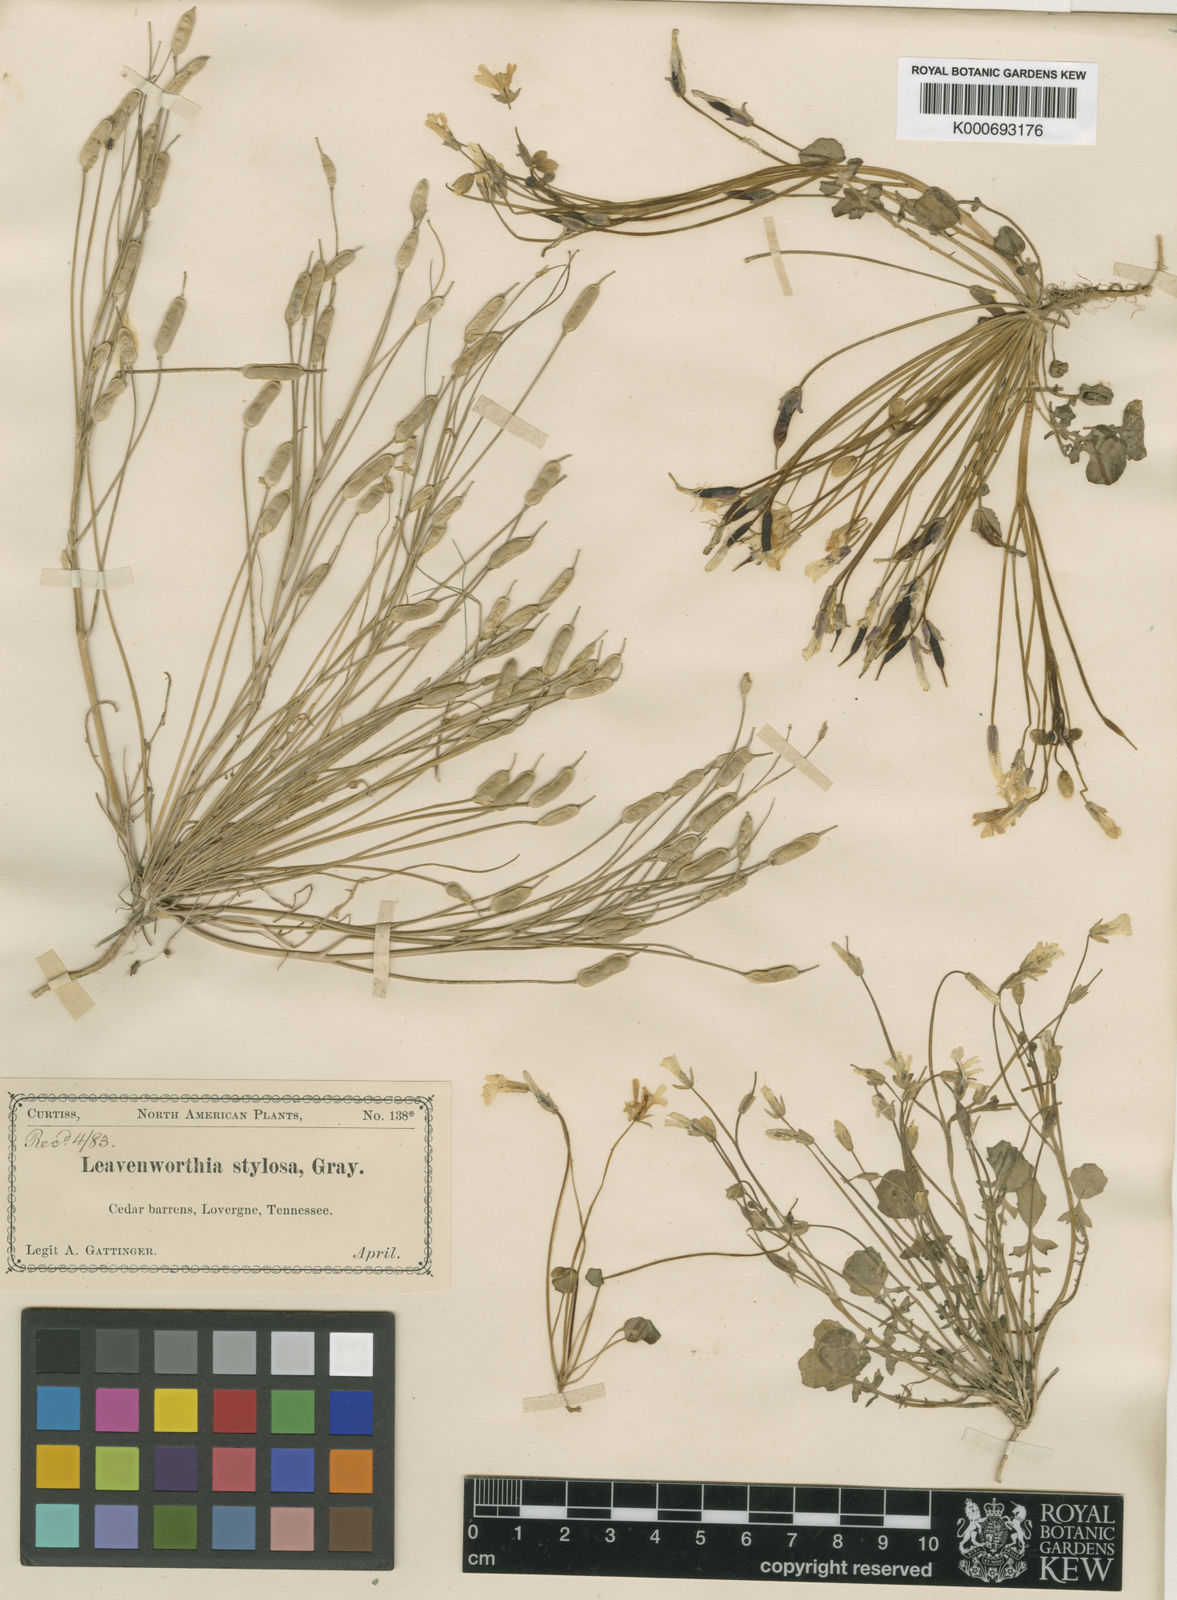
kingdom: Plantae
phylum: Tracheophyta
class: Magnoliopsida
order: Brassicales
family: Brassicaceae
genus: Leavenworthia
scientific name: Leavenworthia
